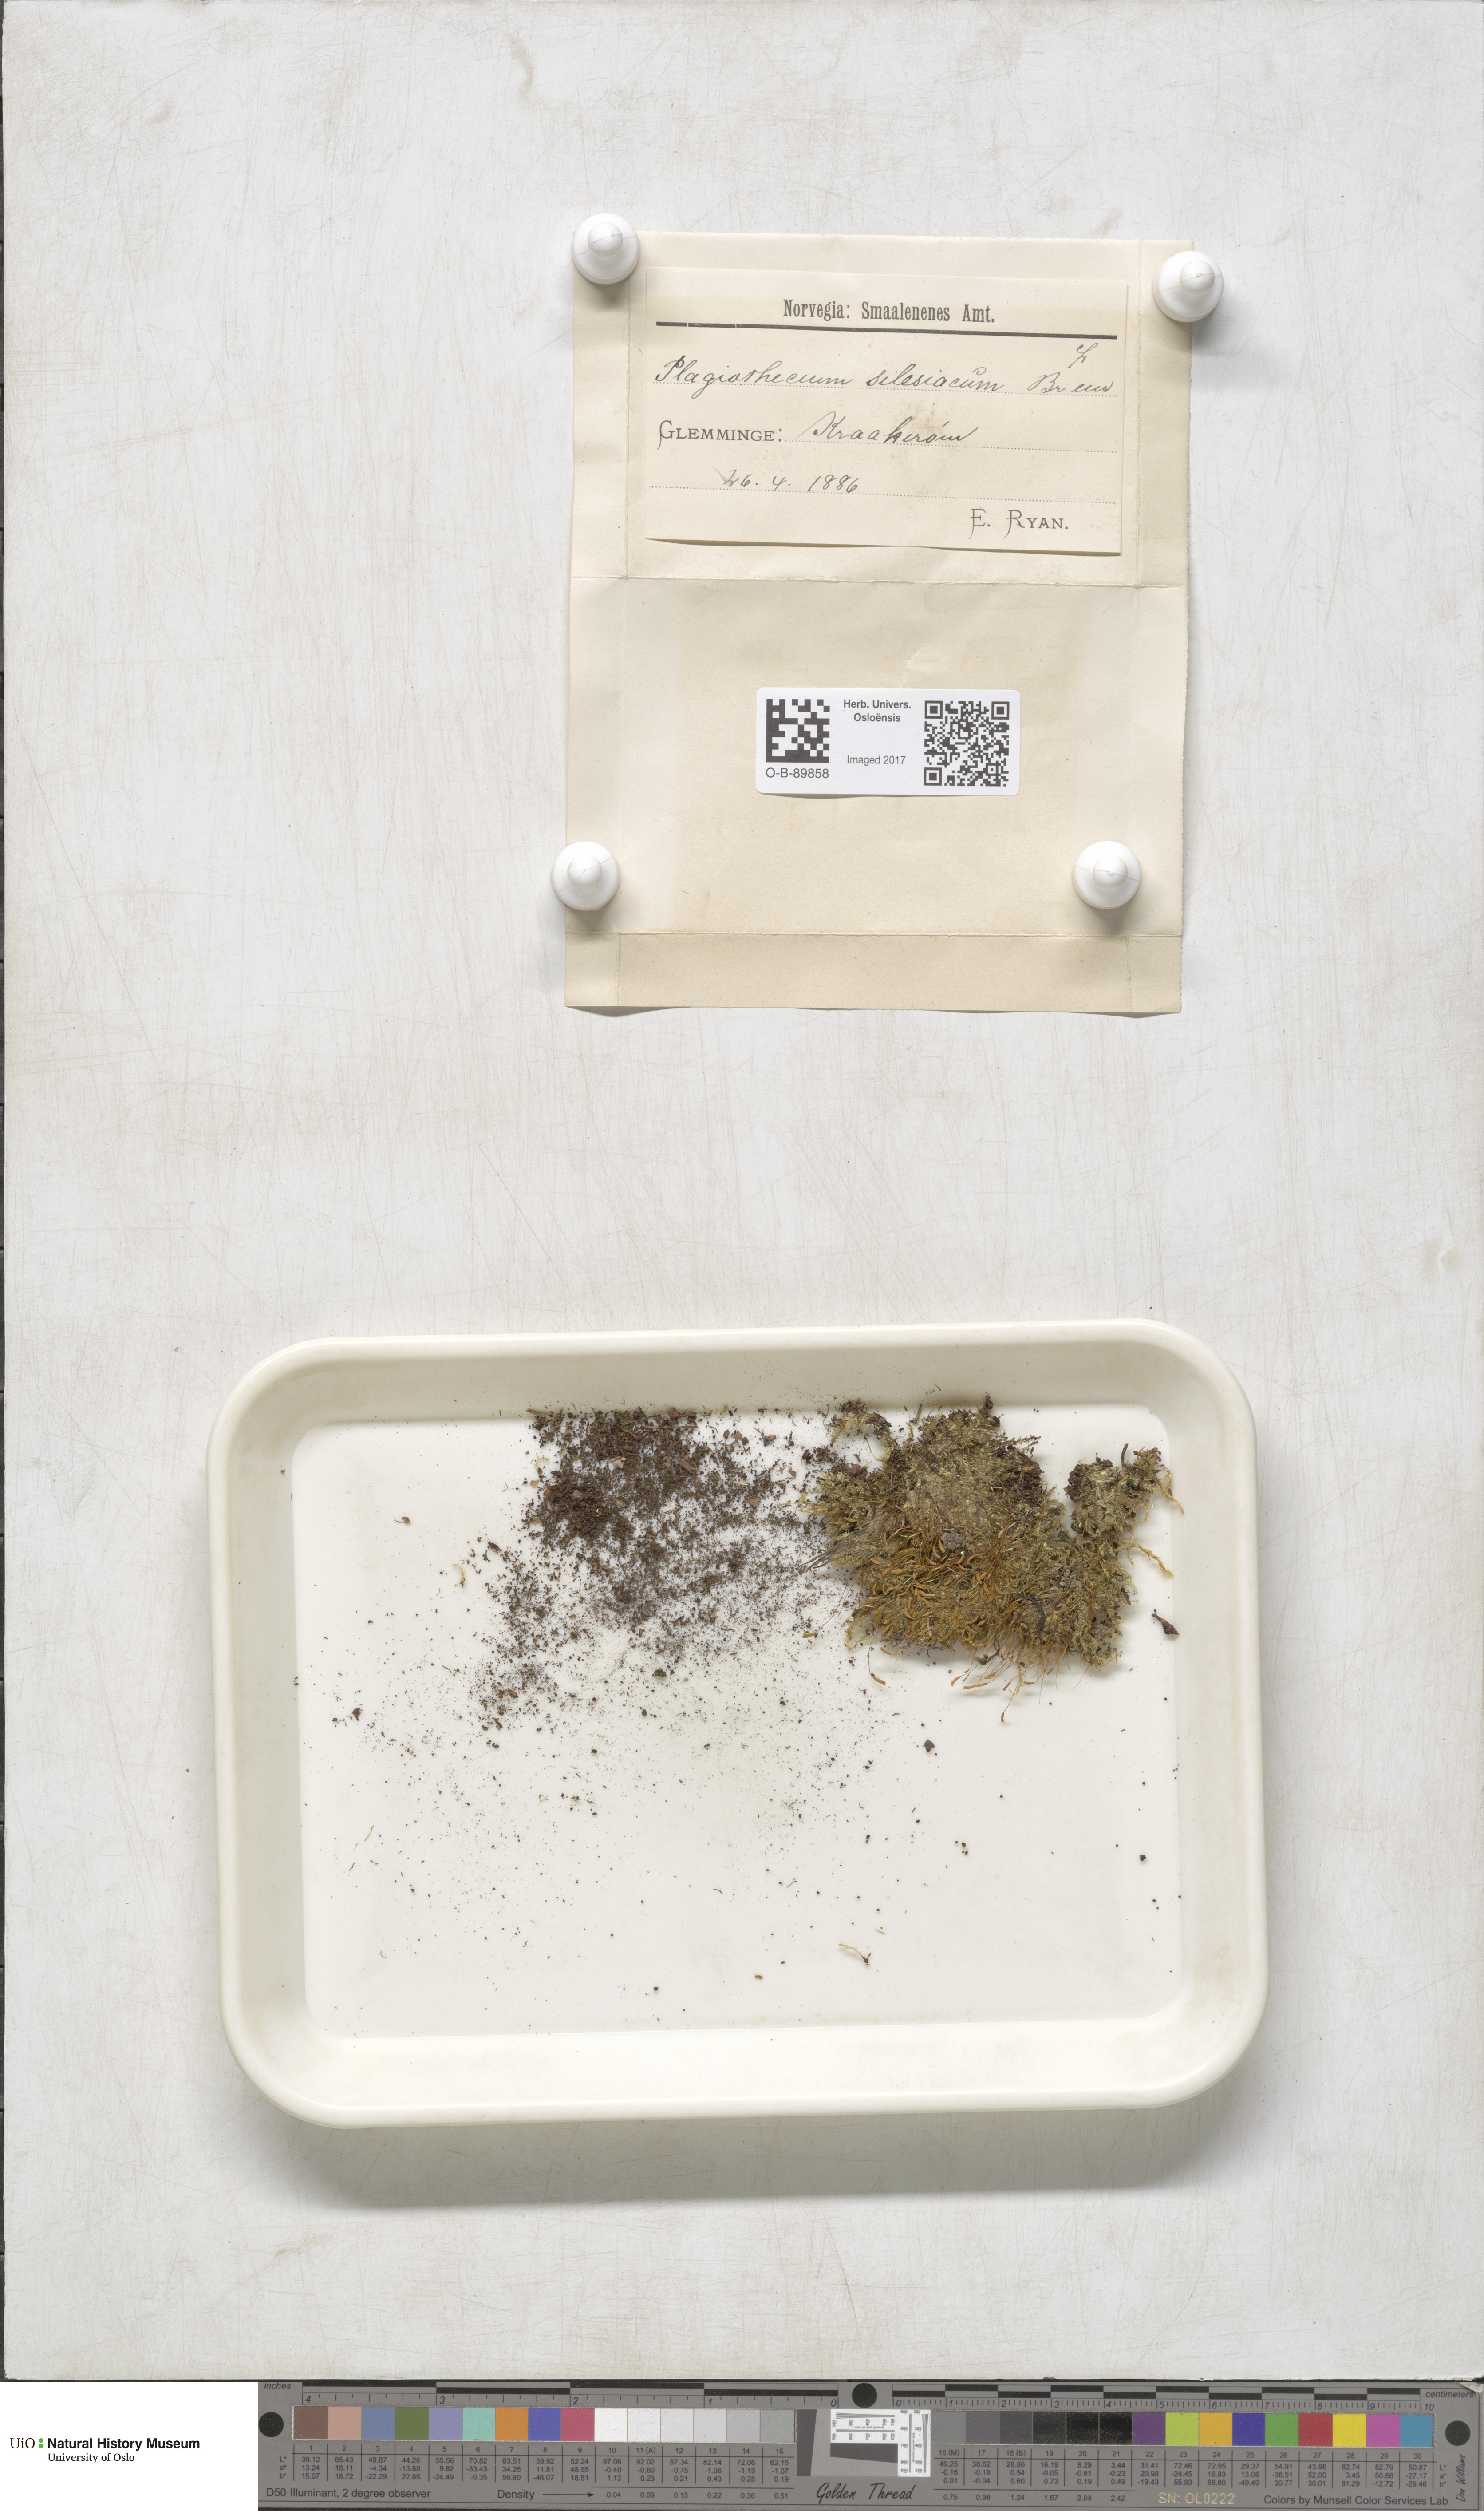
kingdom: Plantae
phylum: Bryophyta
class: Bryopsida
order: Hypnales
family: Plagiotheciaceae
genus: Herzogiella
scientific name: Herzogiella seligeri
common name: Silesian feather-moss
